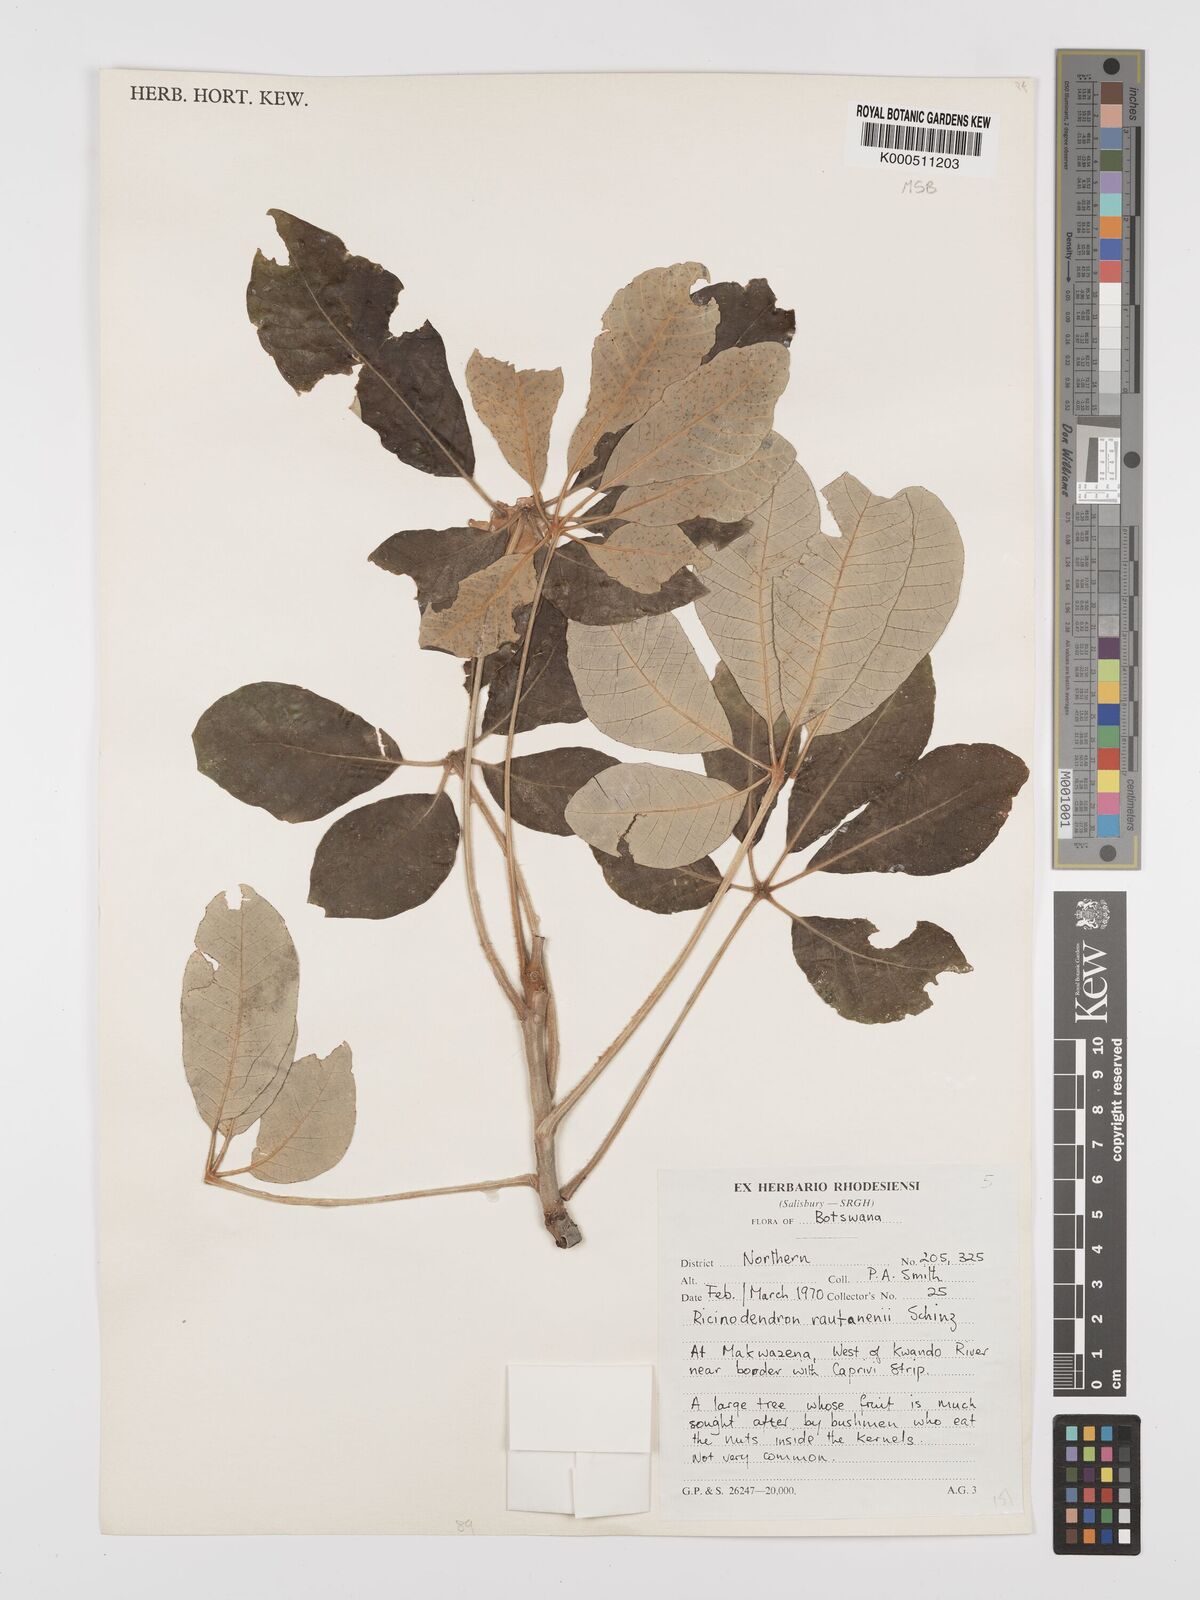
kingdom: Plantae
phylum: Tracheophyta
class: Magnoliopsida
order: Malpighiales
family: Euphorbiaceae
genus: Schinziophyton
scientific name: Schinziophyton rautanenii
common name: Manketti
